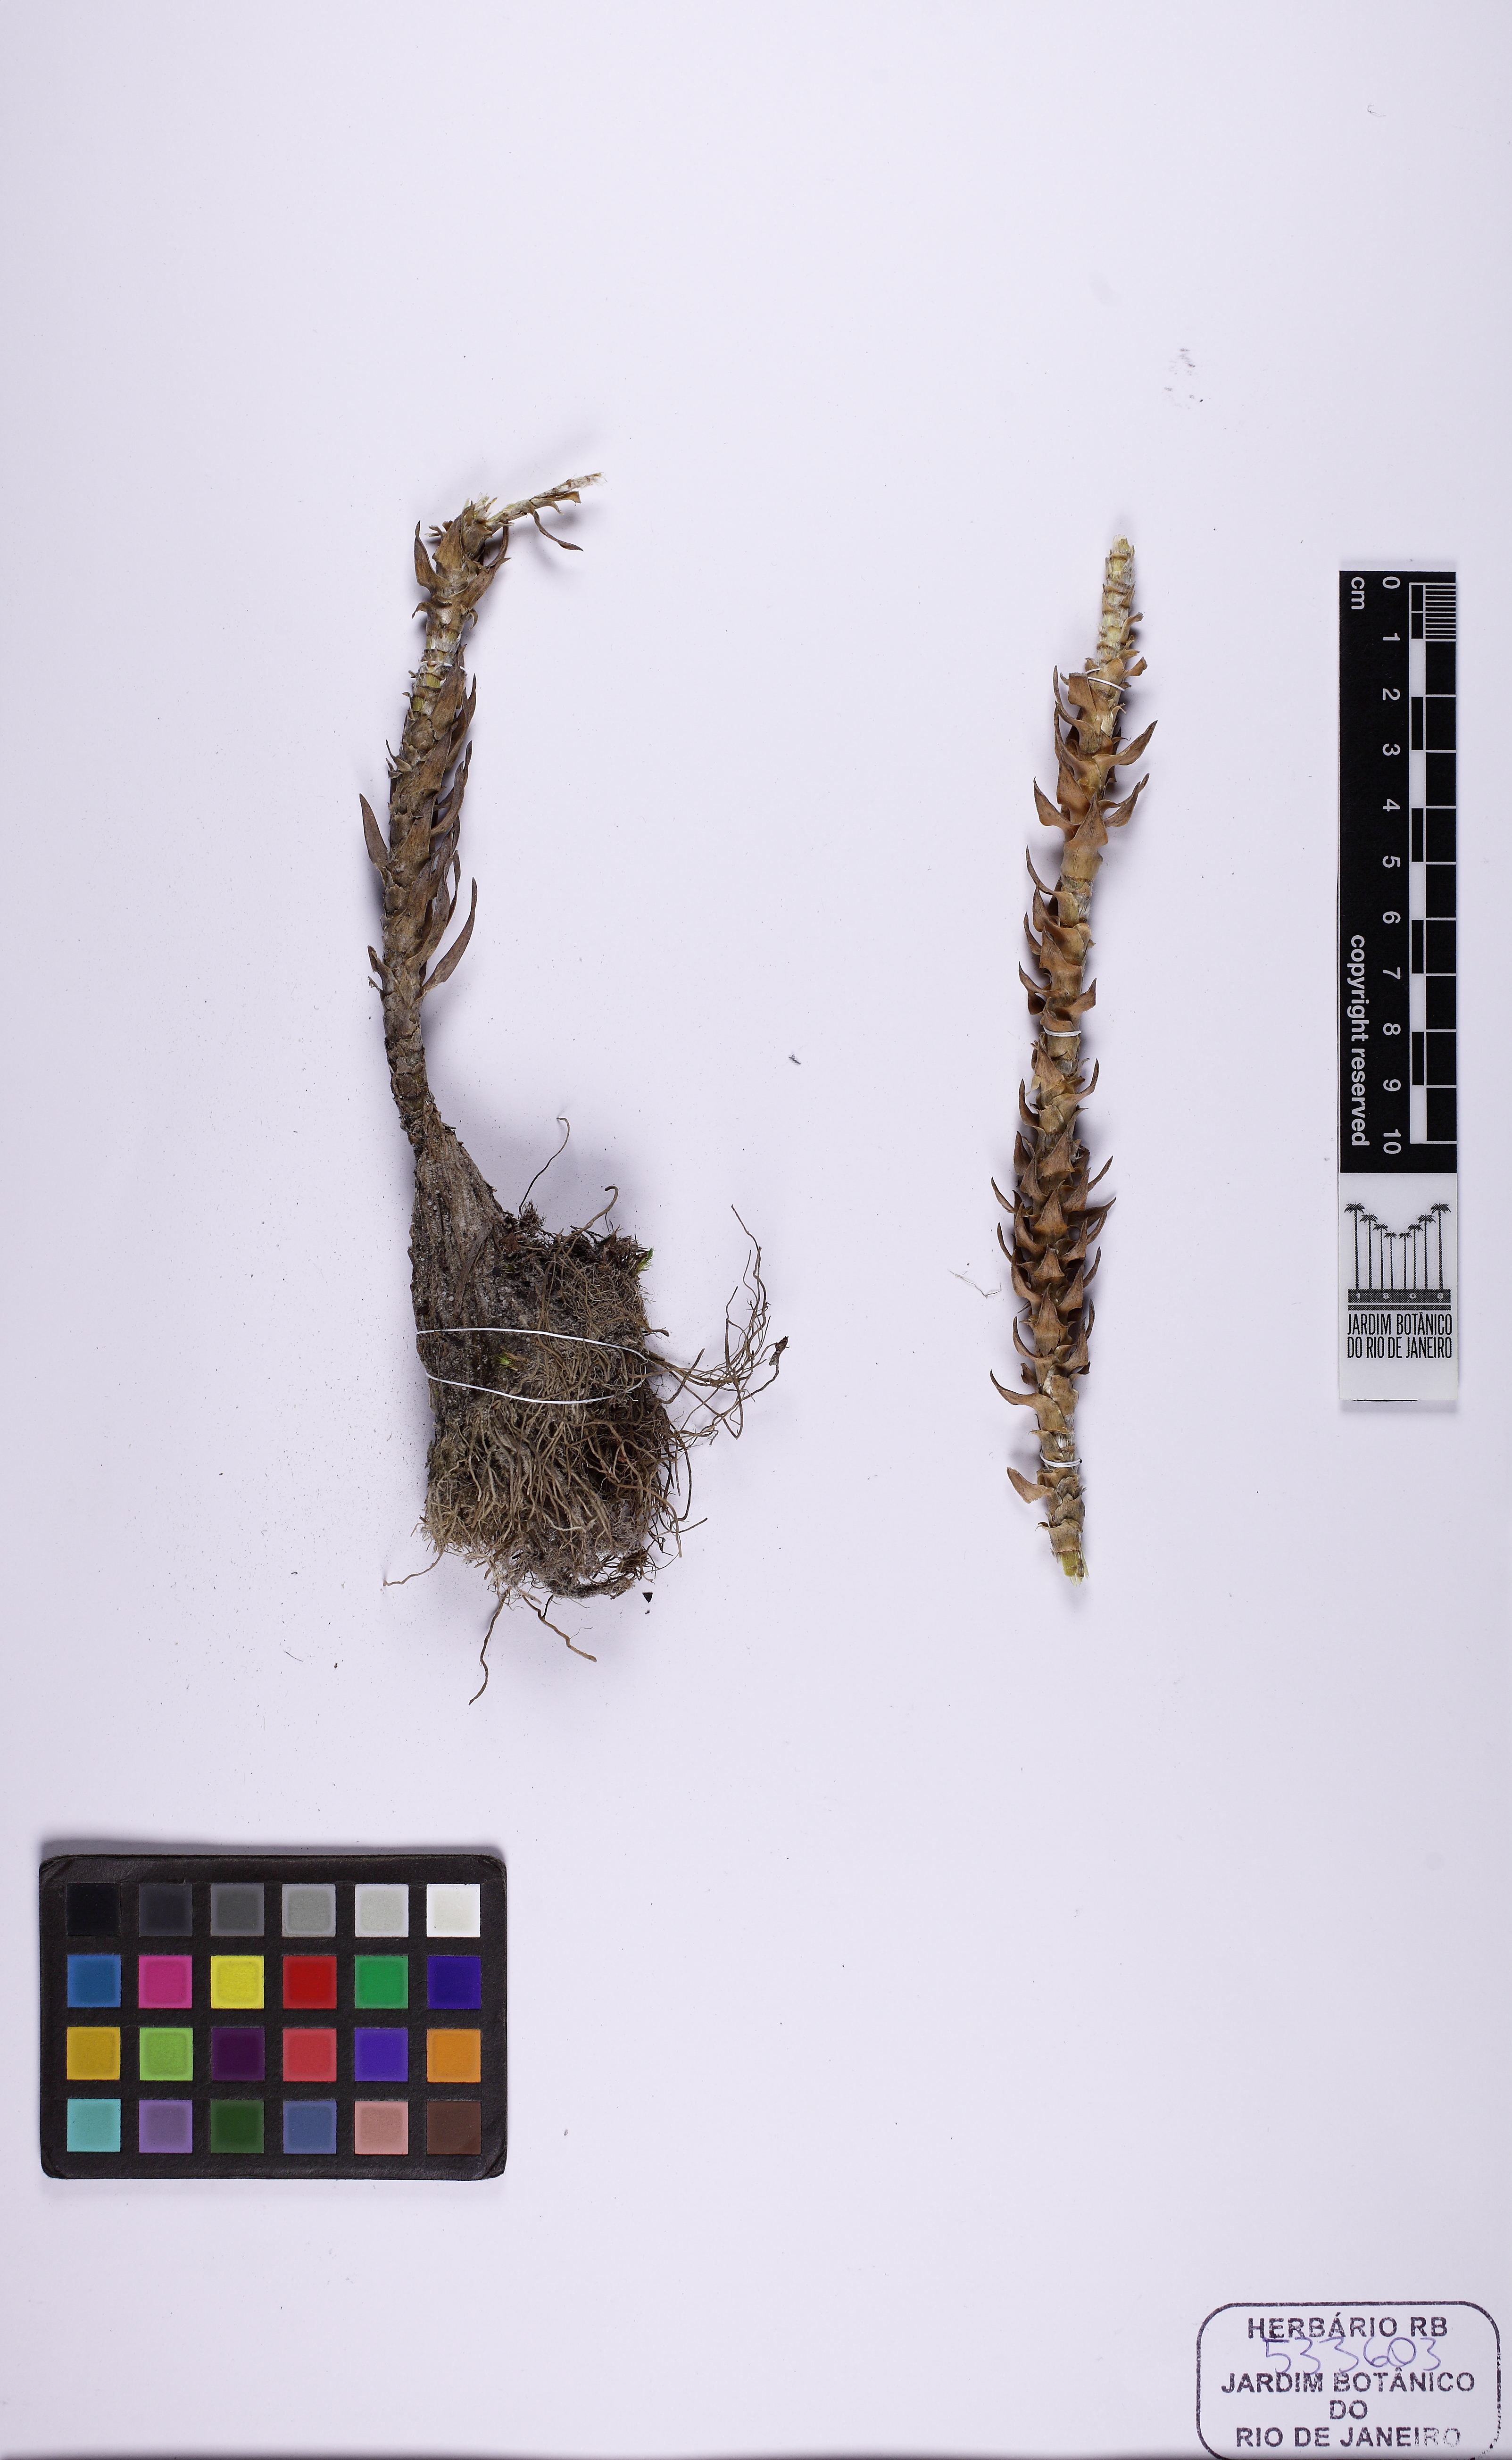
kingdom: Plantae
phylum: Tracheophyta
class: Liliopsida
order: Poales
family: Eriocaulaceae
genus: Paepalanthus
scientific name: Paepalanthus acanthophyllus
